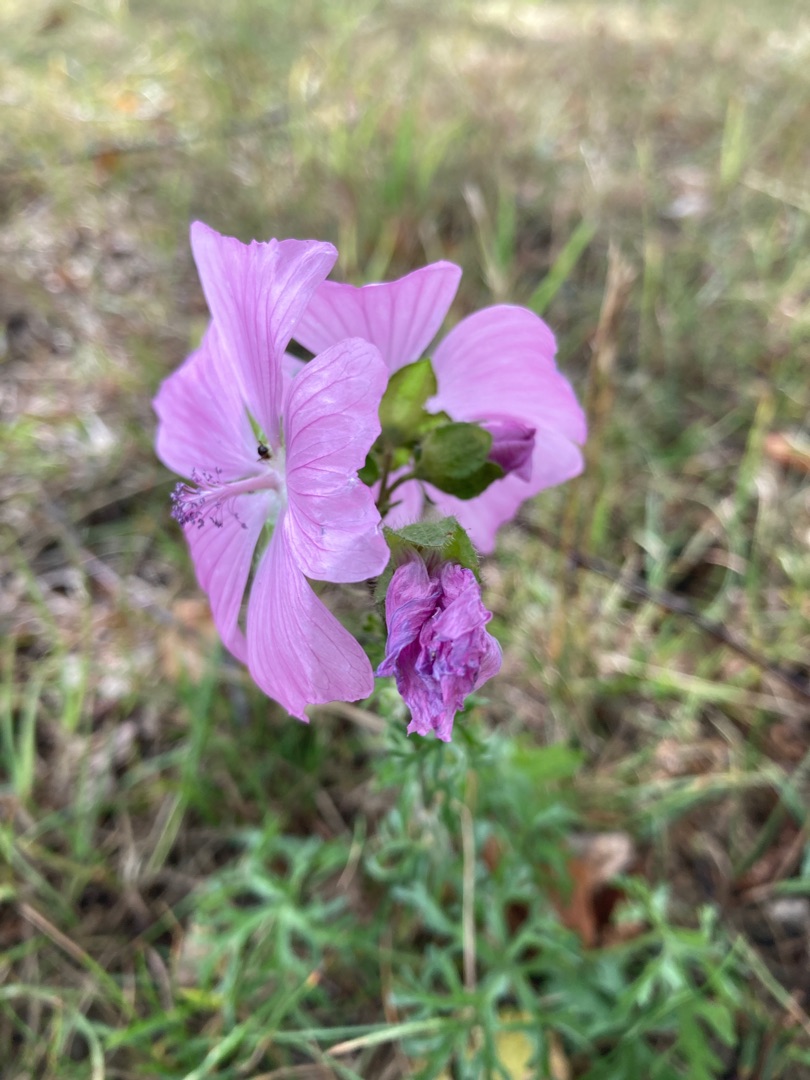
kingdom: Plantae
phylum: Tracheophyta
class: Magnoliopsida
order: Malvales
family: Malvaceae
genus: Malva
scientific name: Malva moschata
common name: Moskus-katost
